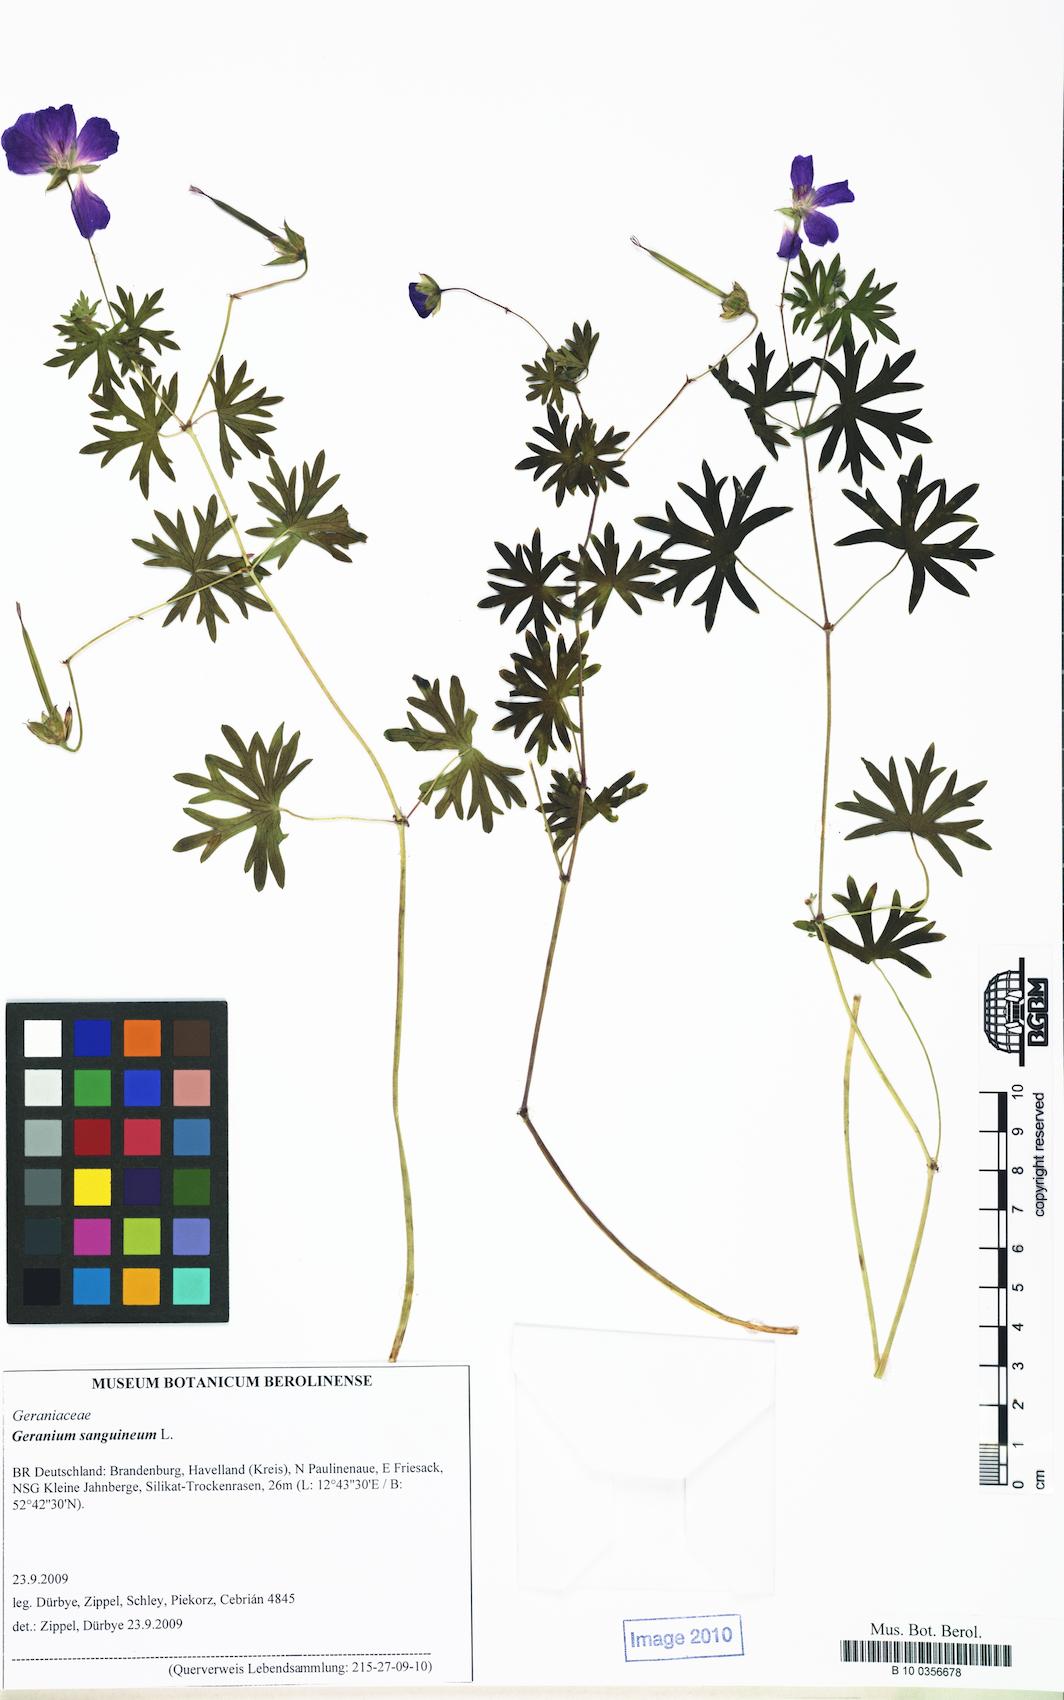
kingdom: Plantae
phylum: Tracheophyta
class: Magnoliopsida
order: Geraniales
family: Geraniaceae
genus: Geranium
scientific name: Geranium sanguineum
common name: Bloody crane's-bill
